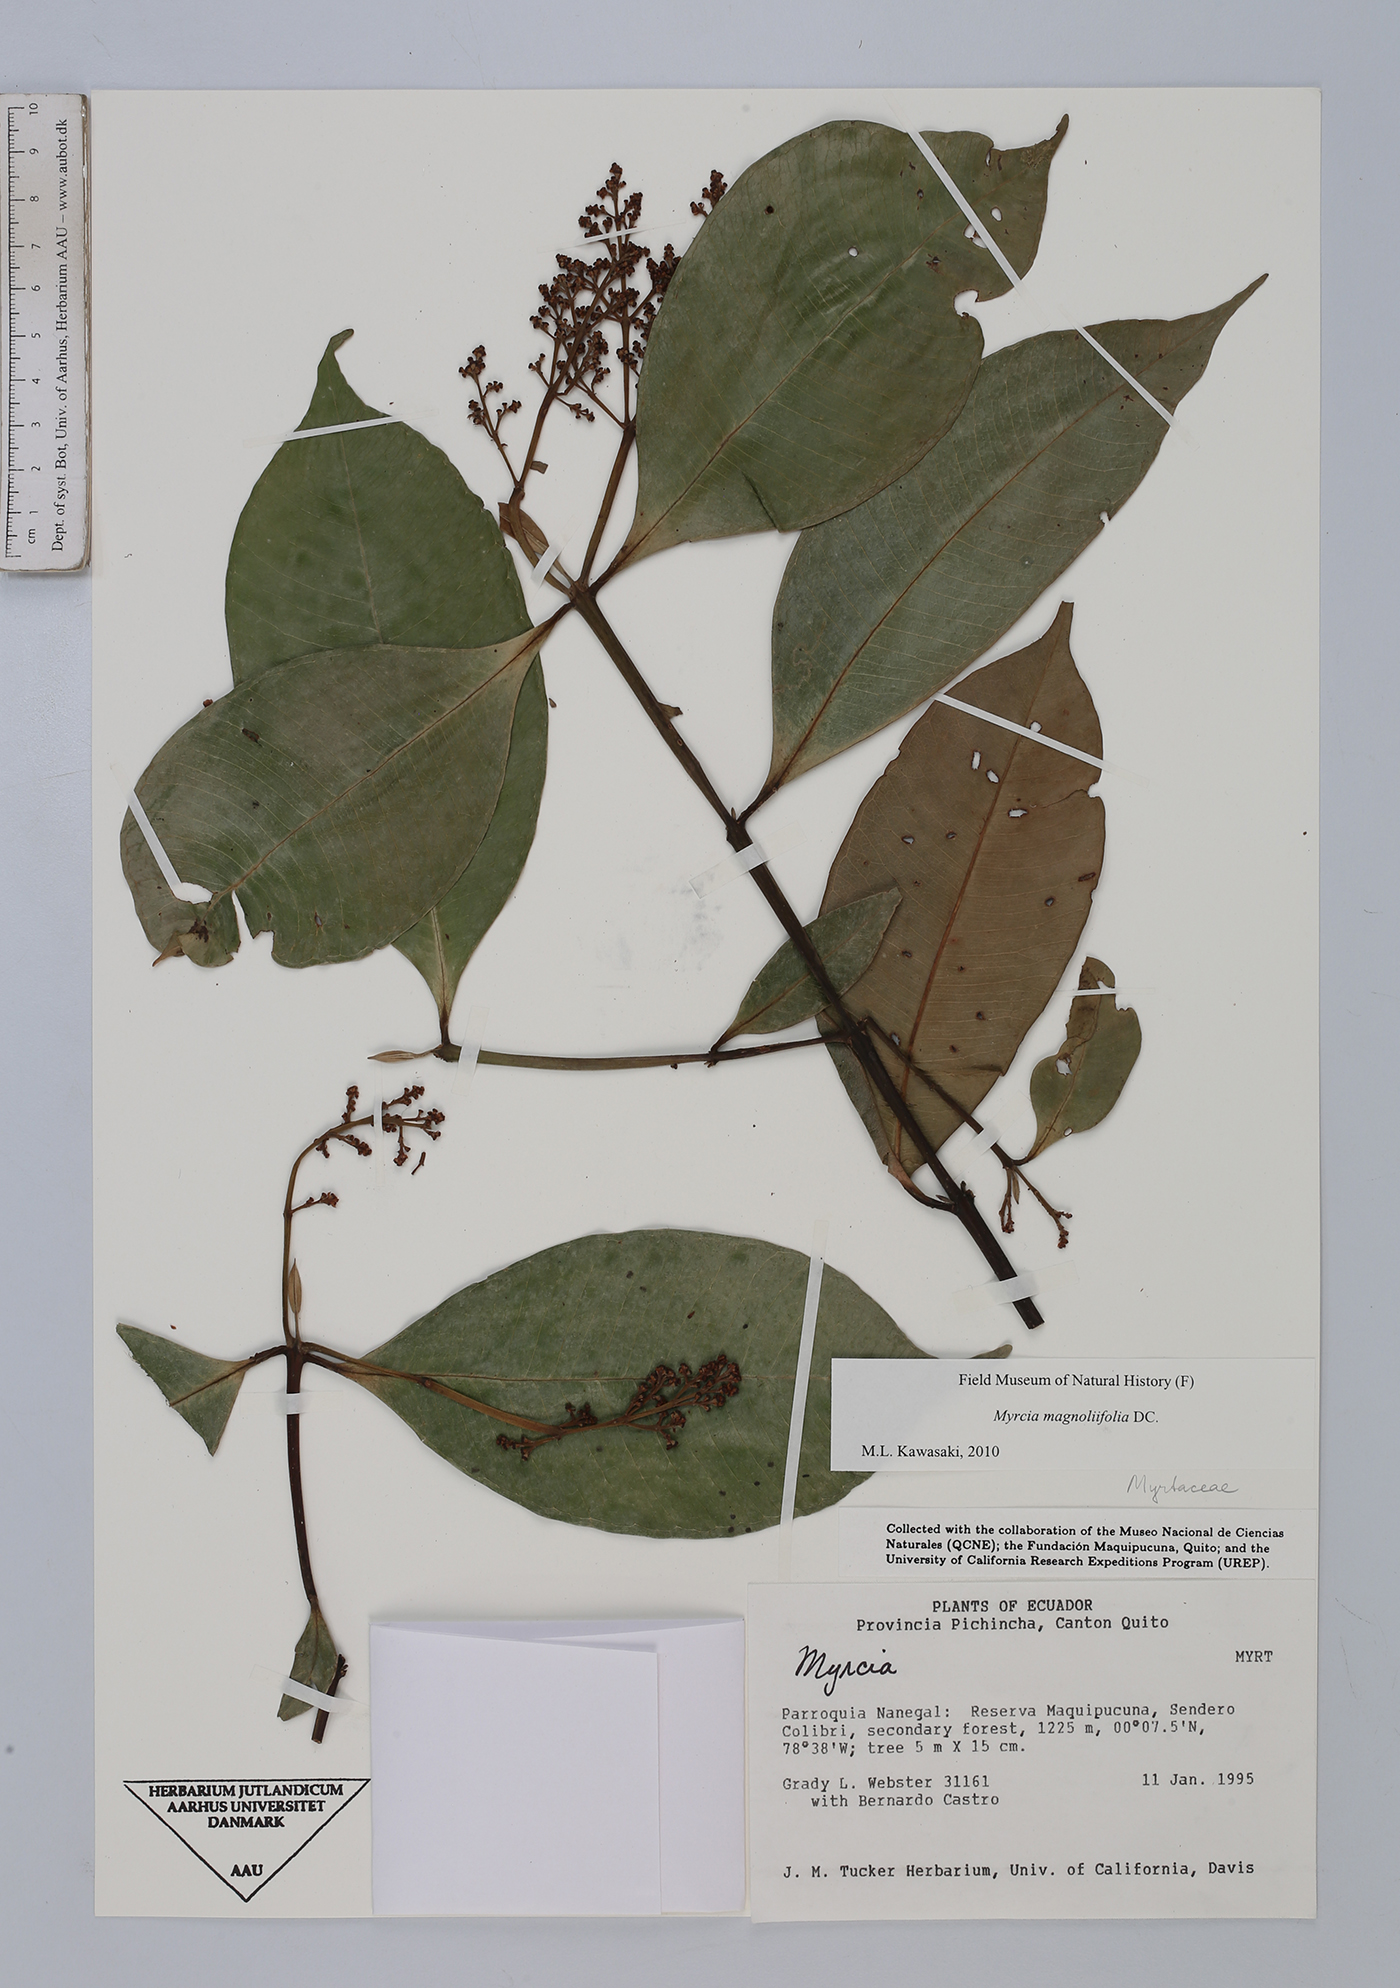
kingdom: Plantae
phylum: Tracheophyta
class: Magnoliopsida
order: Myrtales
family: Myrtaceae
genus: Myrcia
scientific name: Myrcia splendens
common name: Surinam cherry
